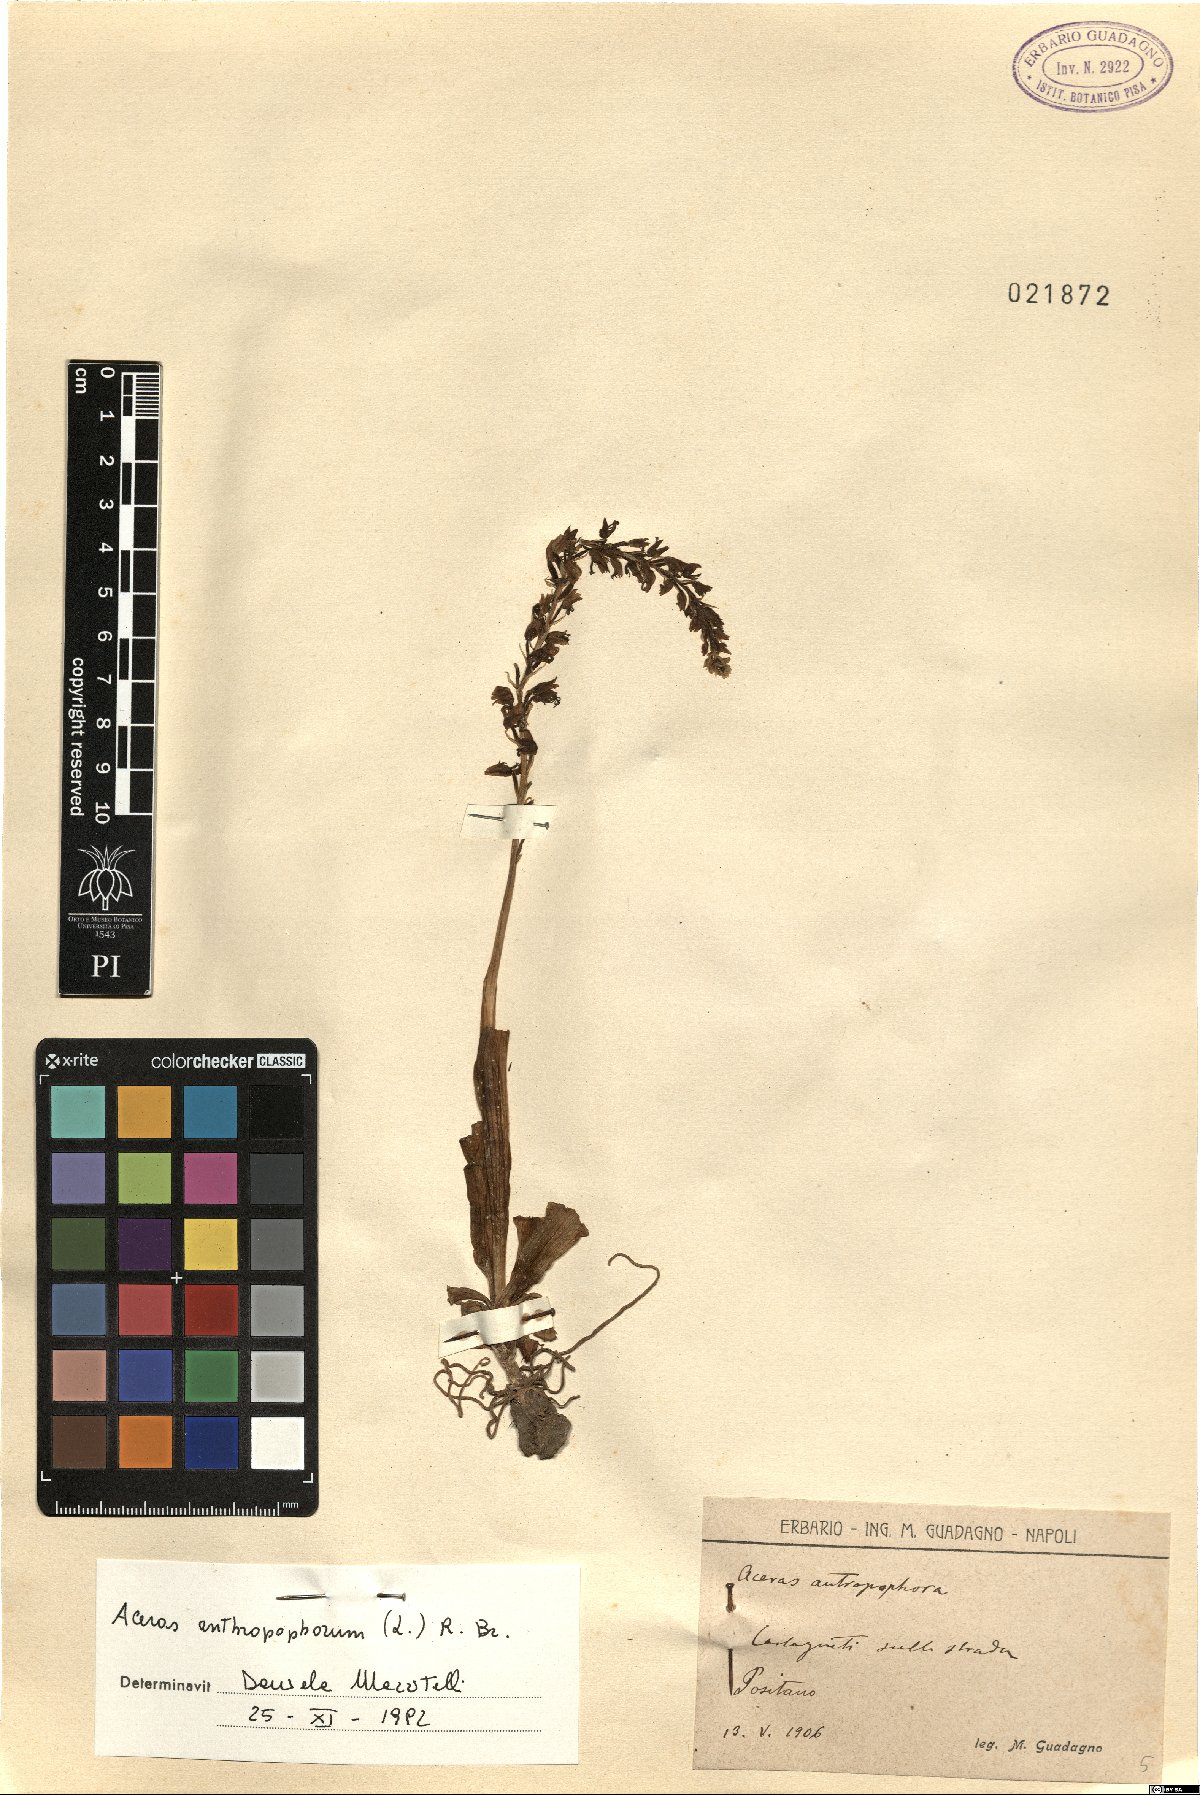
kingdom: Plantae
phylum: Tracheophyta
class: Liliopsida
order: Asparagales
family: Orchidaceae
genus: Orchis
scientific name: Orchis anthropophora
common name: Man orchid
